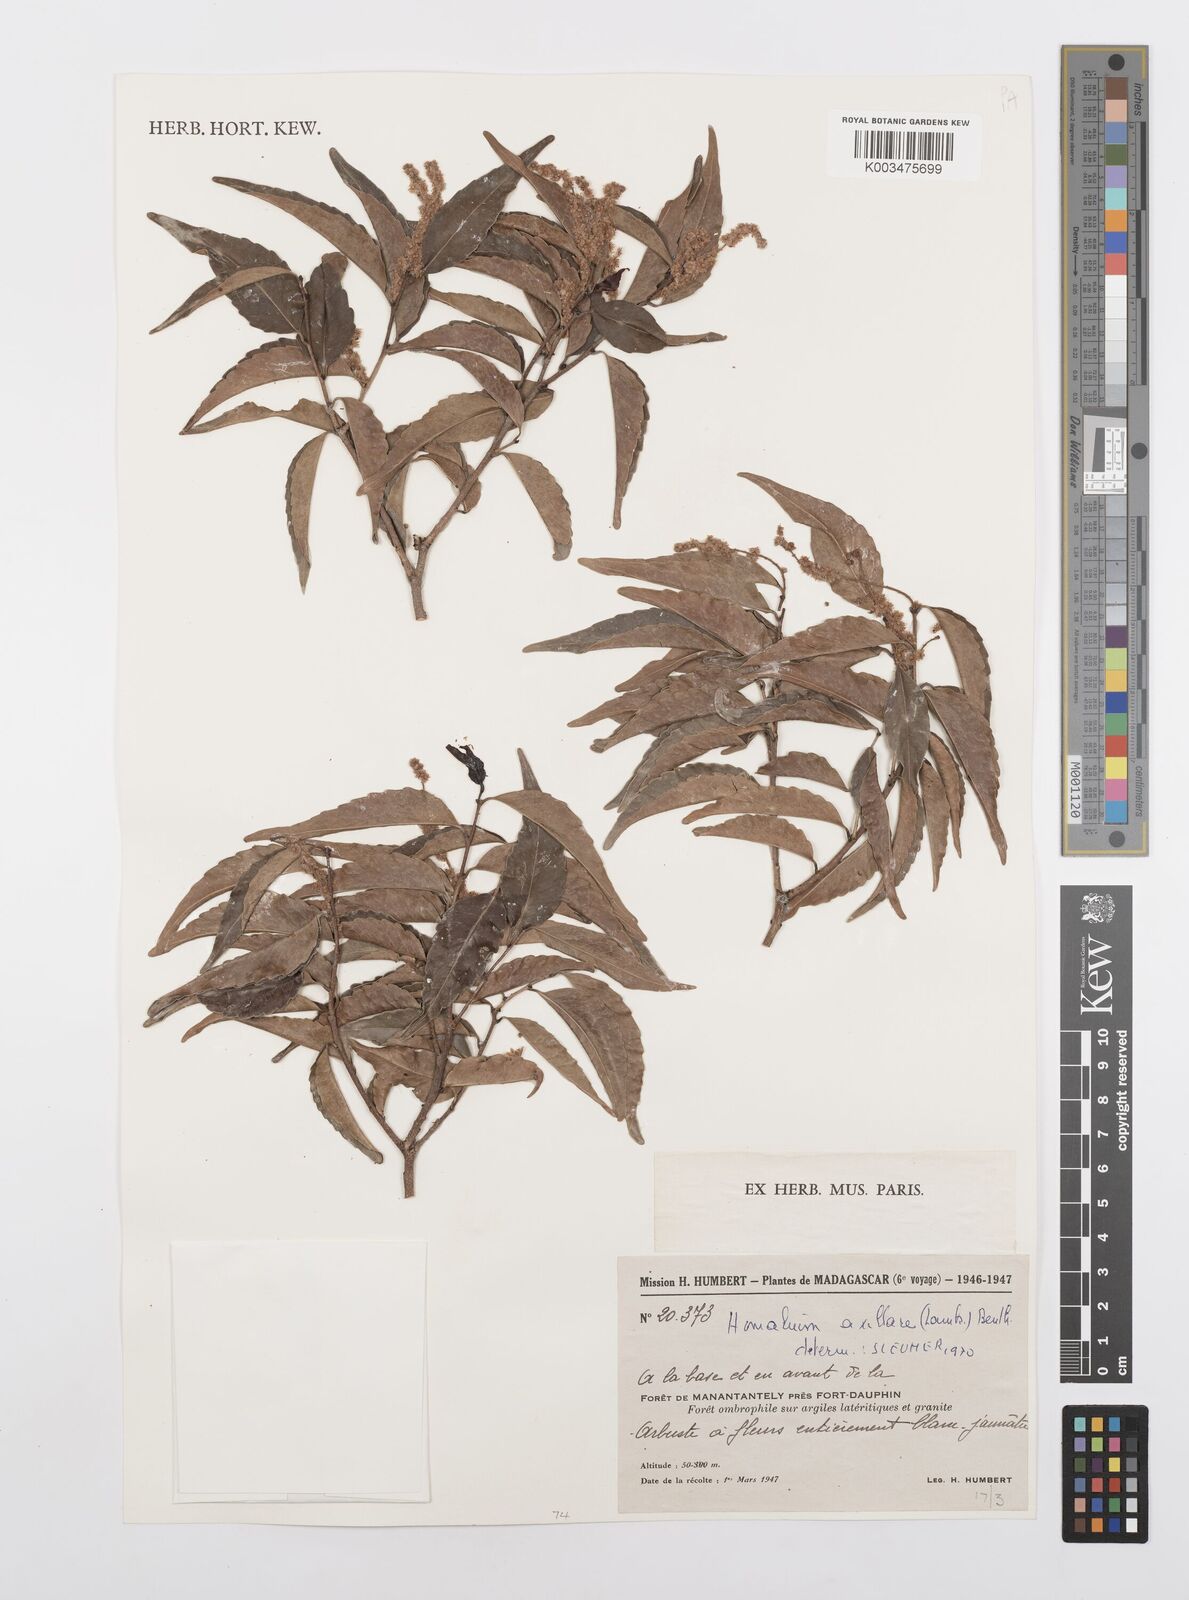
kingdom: Plantae
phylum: Tracheophyta
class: Magnoliopsida
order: Malpighiales
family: Salicaceae
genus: Homalium
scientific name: Homalium axillare
